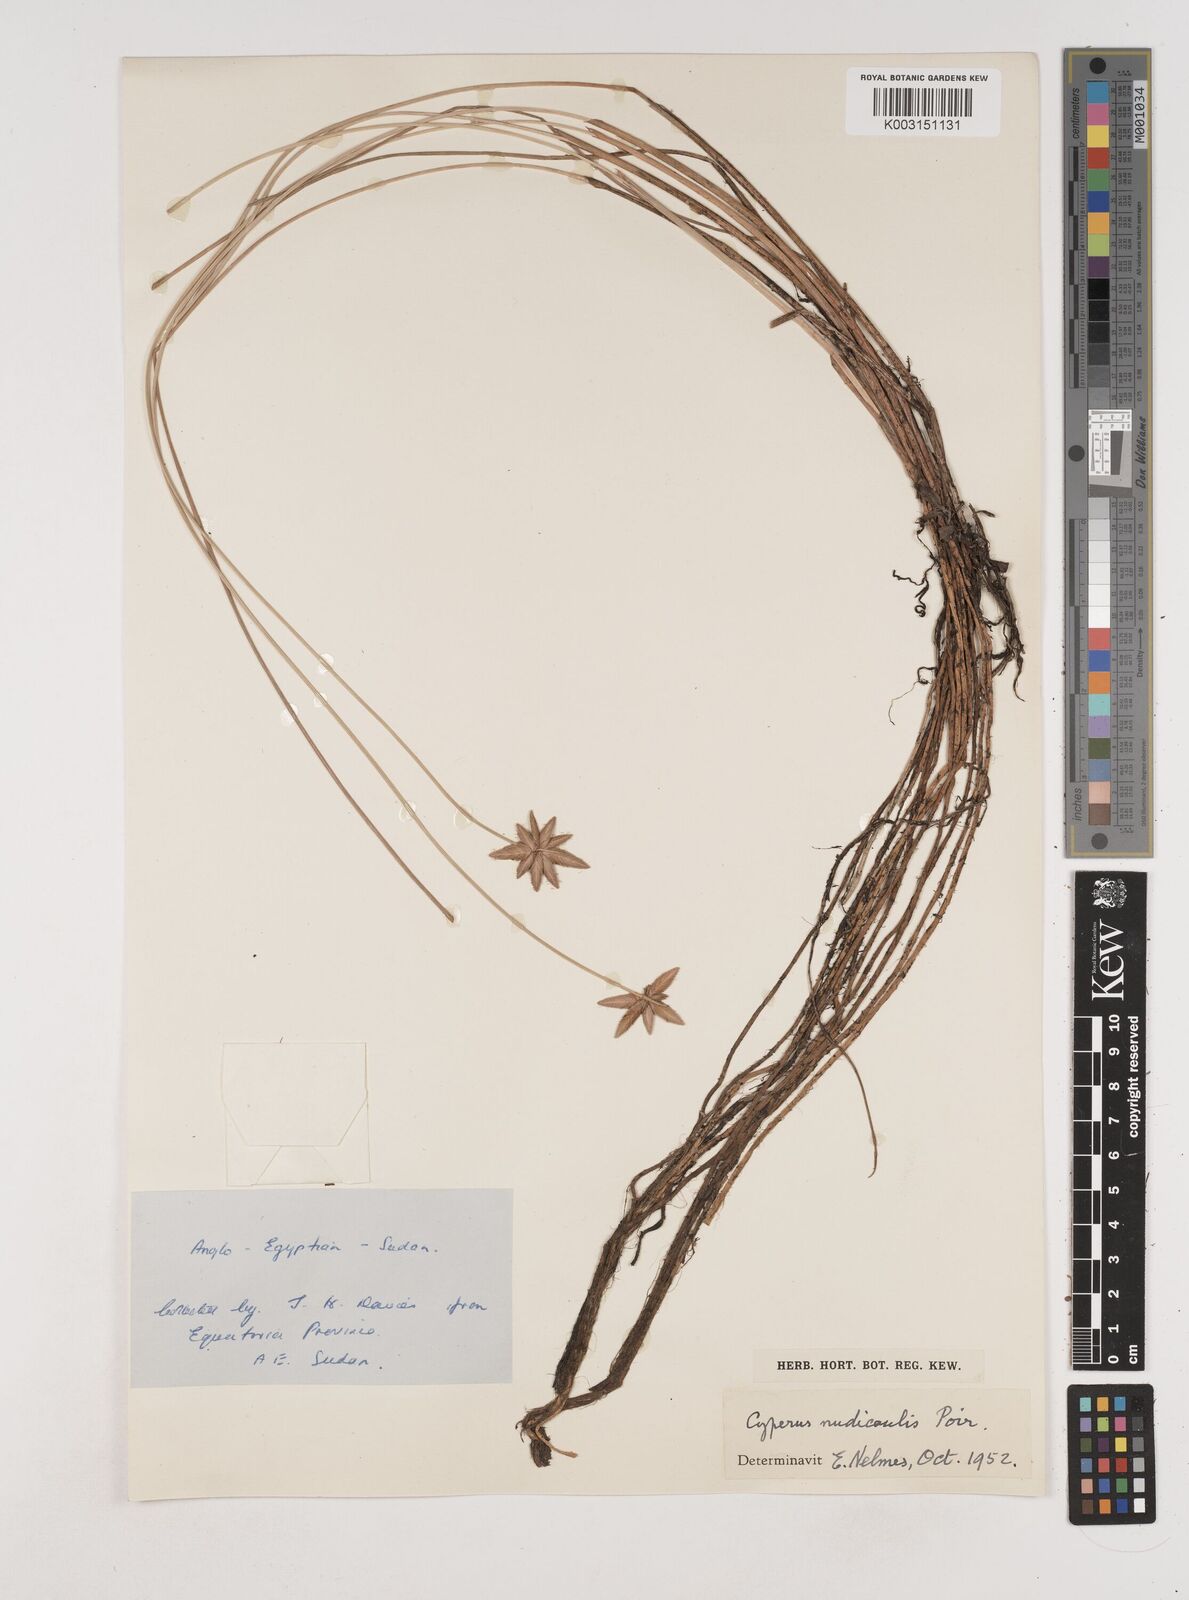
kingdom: Plantae
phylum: Tracheophyta
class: Liliopsida
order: Poales
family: Cyperaceae
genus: Cyperus
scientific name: Cyperus pectinatus
